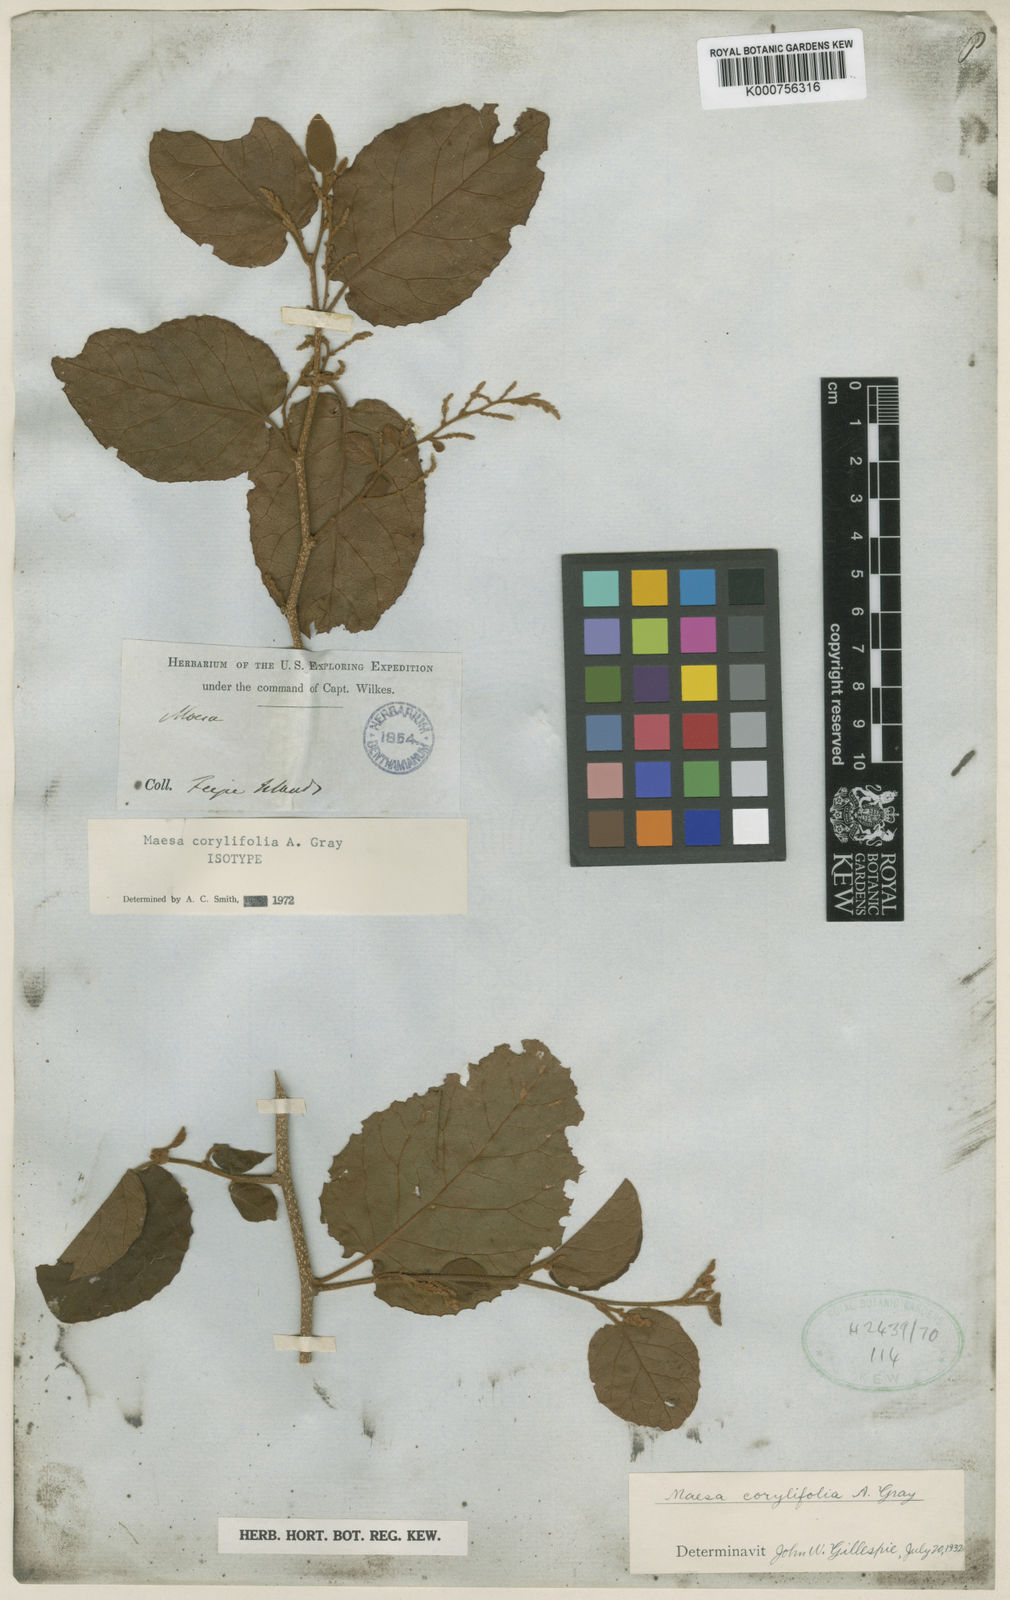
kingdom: Plantae
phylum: Tracheophyta
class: Magnoliopsida
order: Ericales
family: Primulaceae
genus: Maesa
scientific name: Maesa corylifolia
